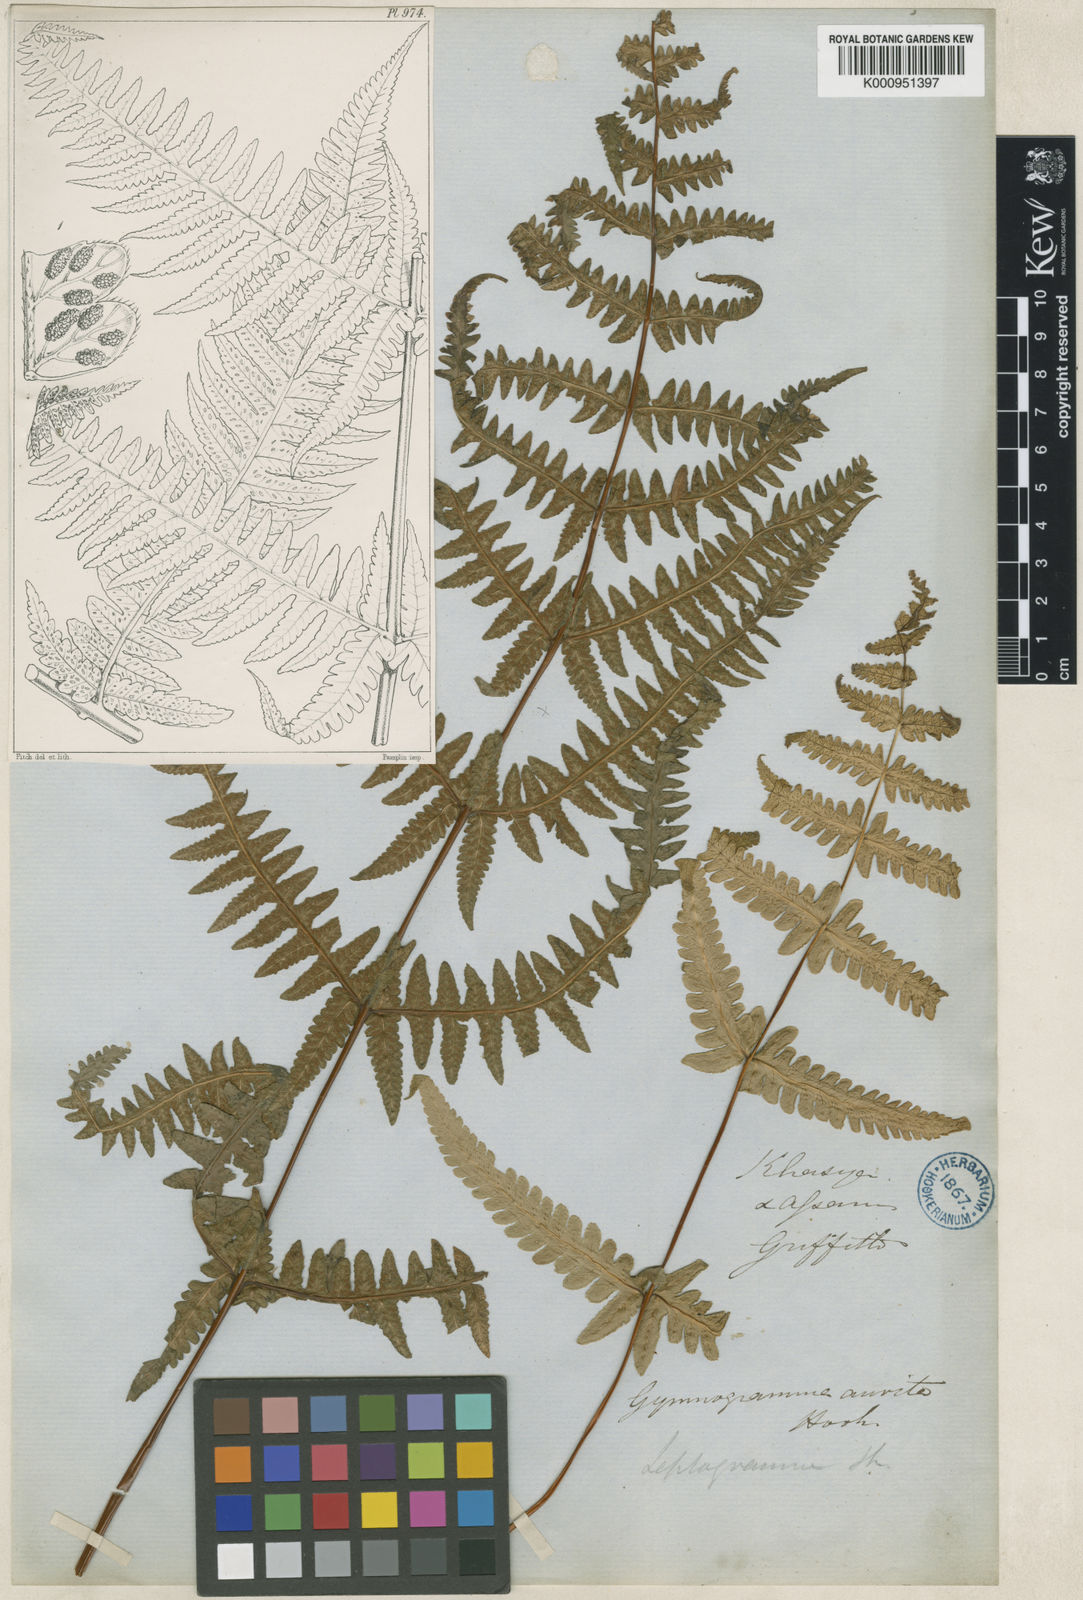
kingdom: Plantae
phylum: Tracheophyta
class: Polypodiopsida
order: Polypodiales
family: Thelypteridaceae
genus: Pseudophegopteris
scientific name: Pseudophegopteris aurita
